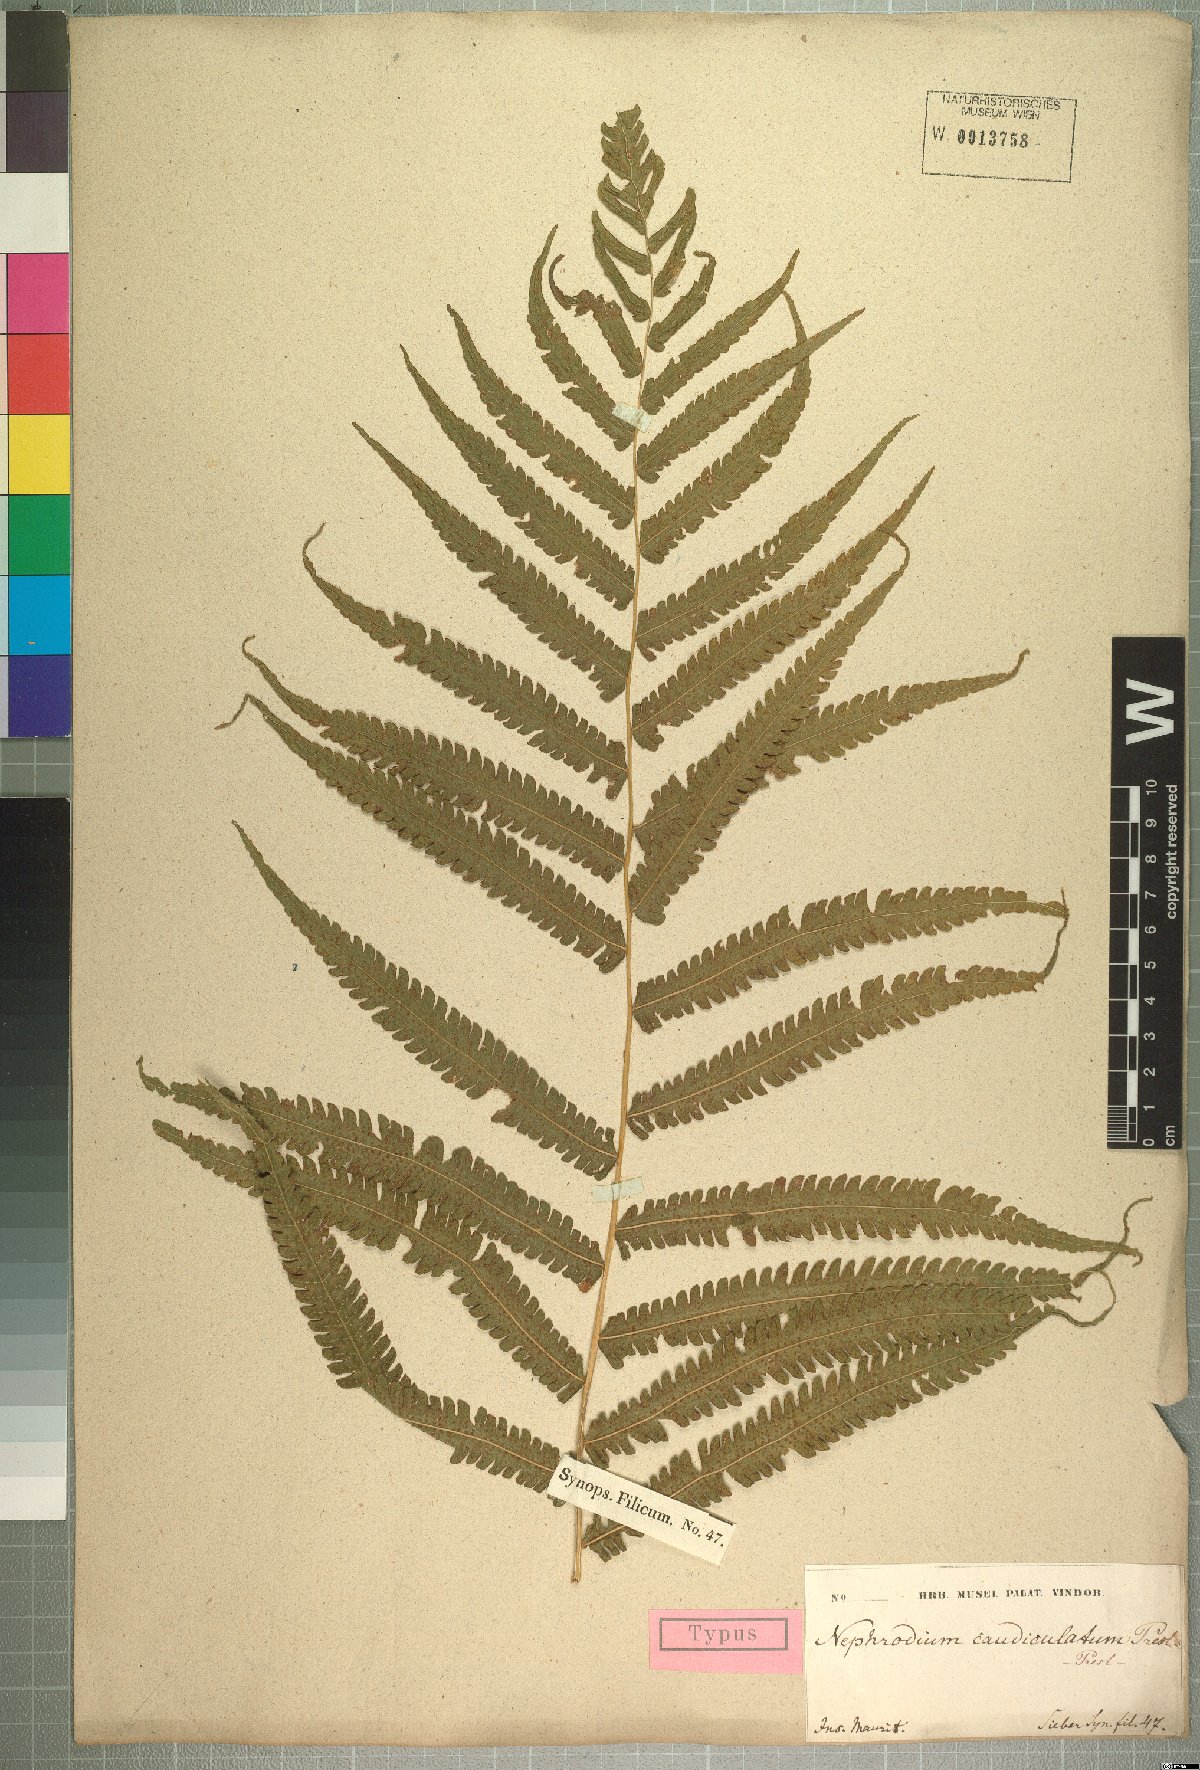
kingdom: Plantae
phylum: Tracheophyta
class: Polypodiopsida
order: Polypodiales
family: Thelypteridaceae
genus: Pneumatopteris
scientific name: Pneumatopteris prismatica
